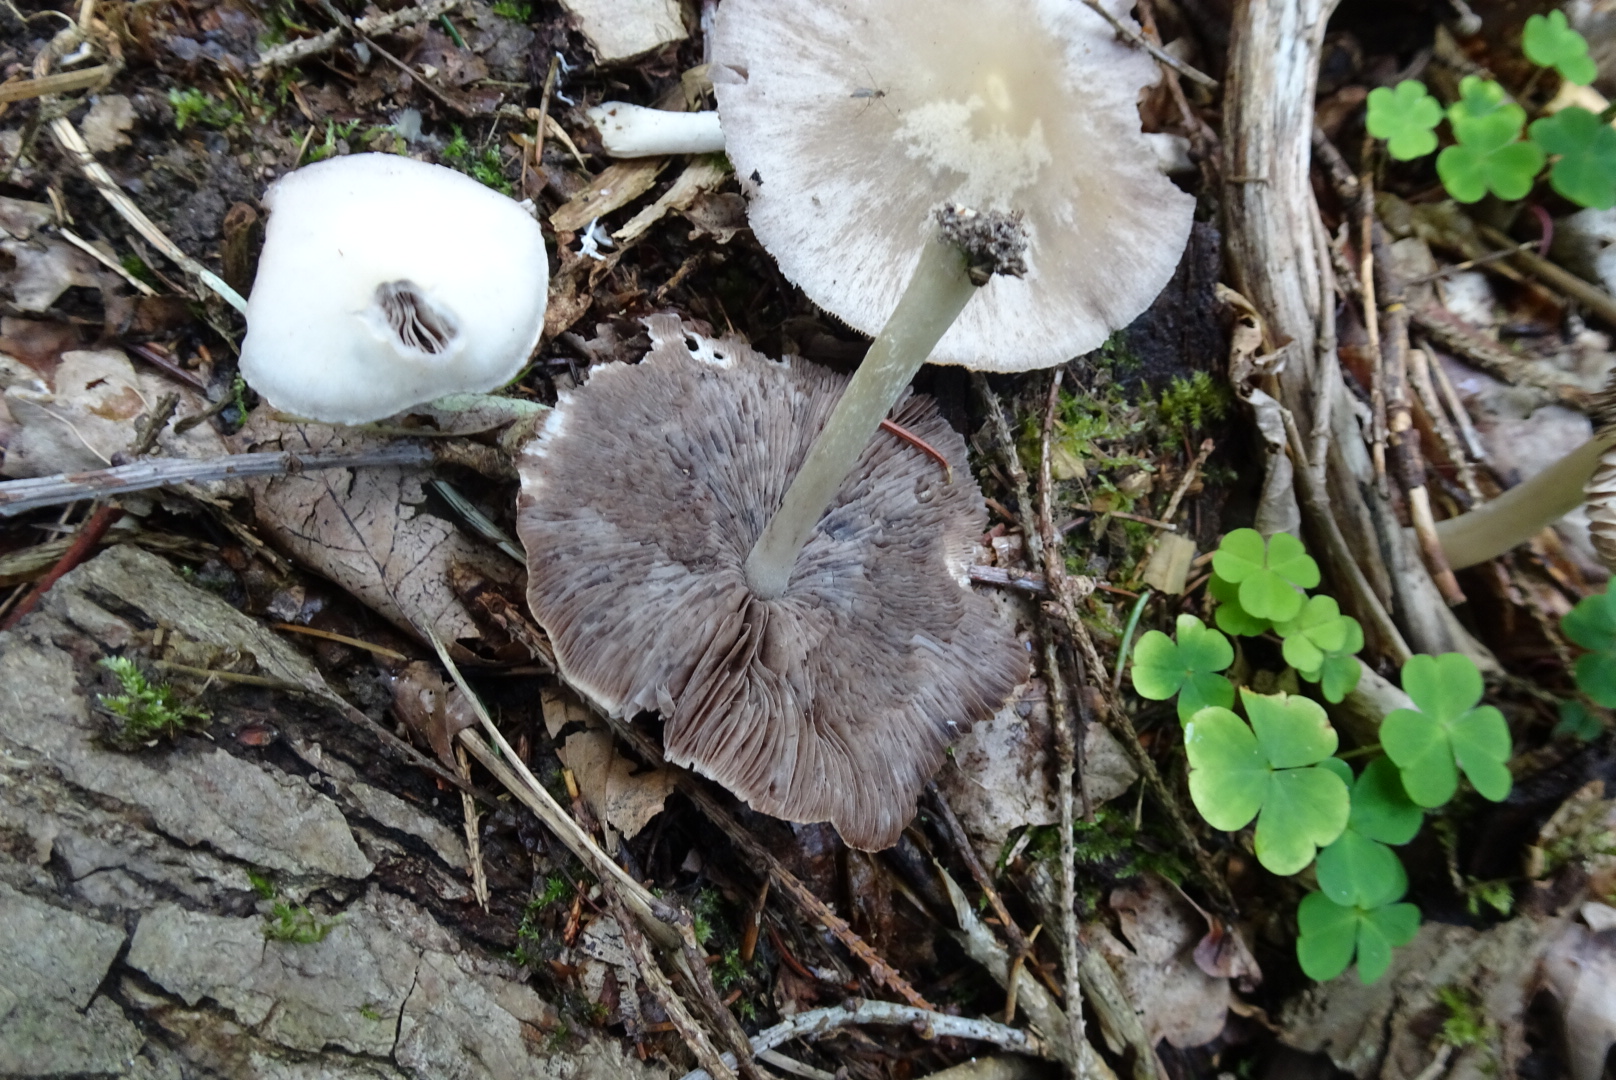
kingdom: Fungi
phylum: Basidiomycota
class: Agaricomycetes
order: Agaricales
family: Psathyrellaceae
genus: Candolleomyces
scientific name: Candolleomyces candolleanus
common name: Candolles mørkhat
